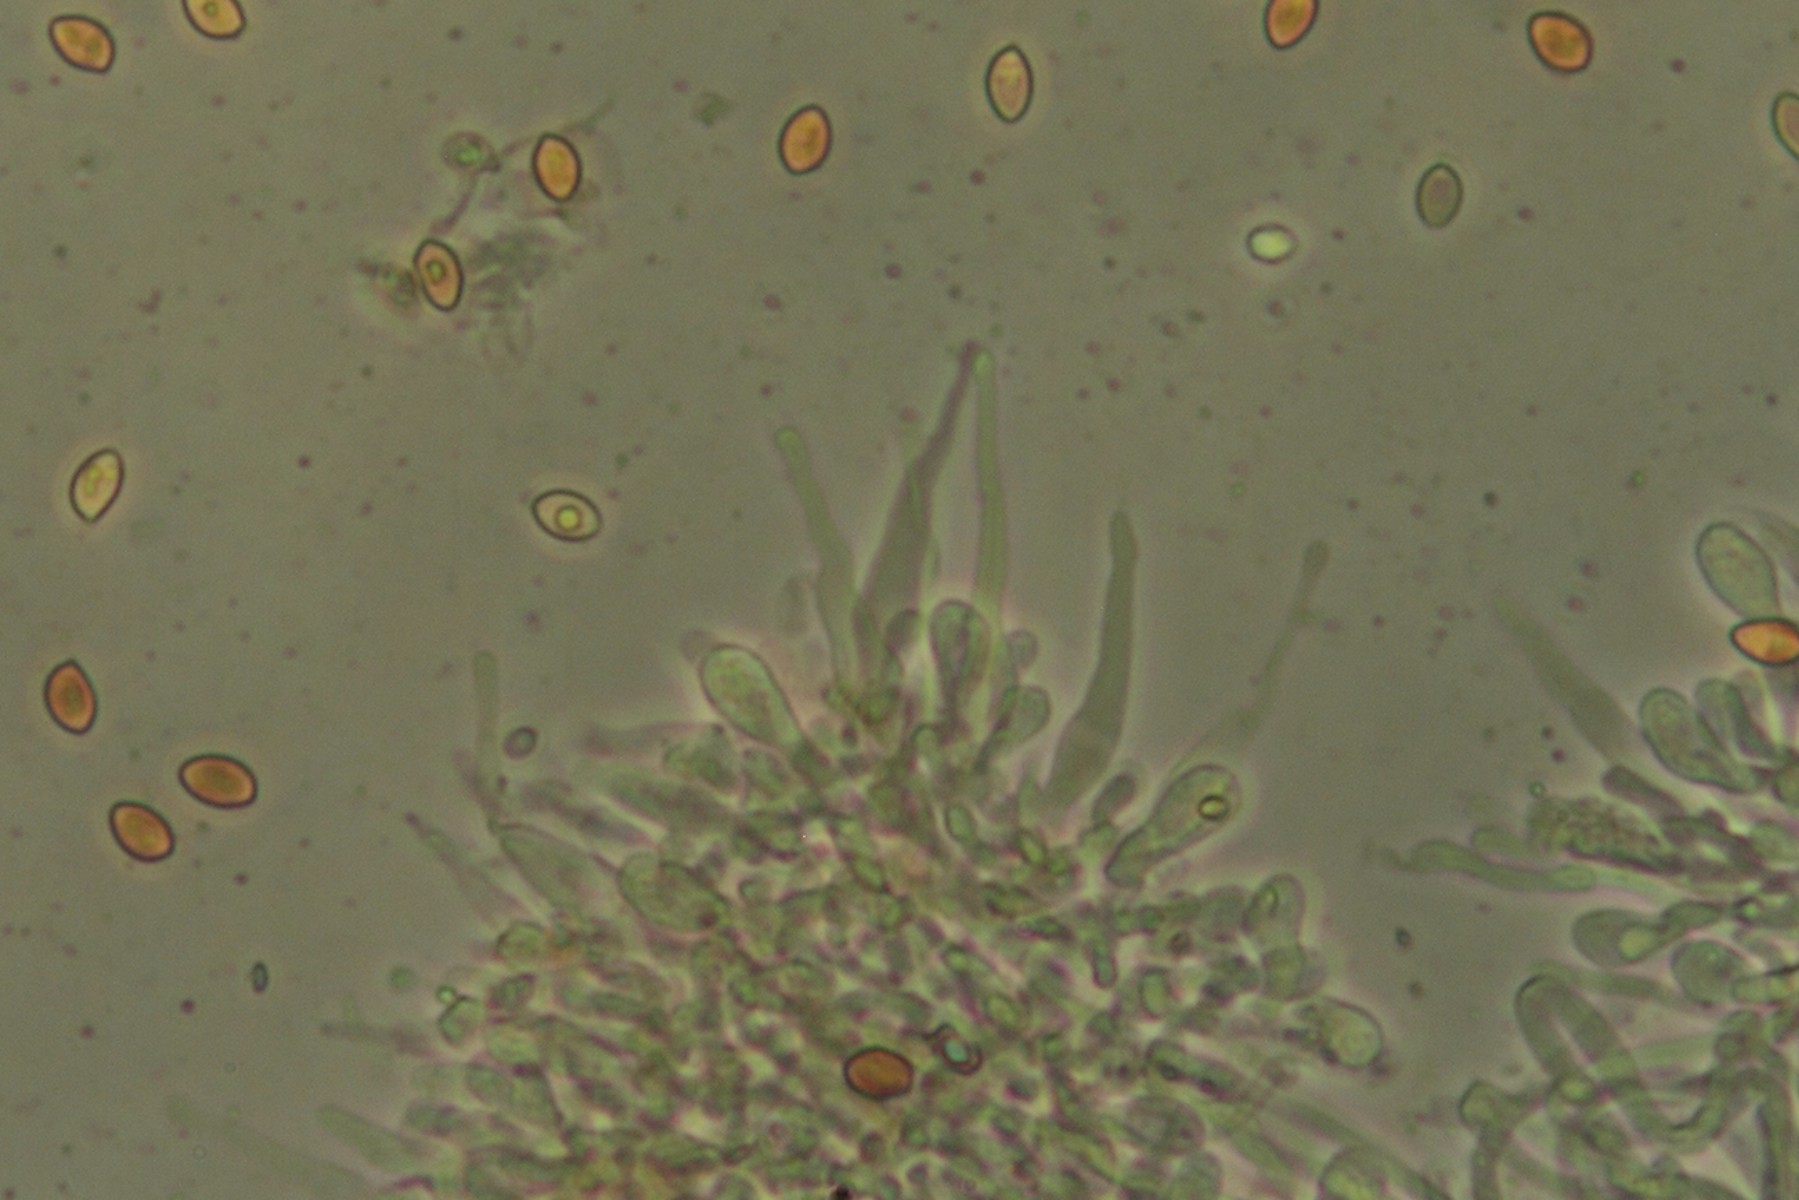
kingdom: Fungi
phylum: Basidiomycota
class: Agaricomycetes
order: Agaricales
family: Hymenogastraceae
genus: Galerina
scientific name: Galerina esteve-raventosii
